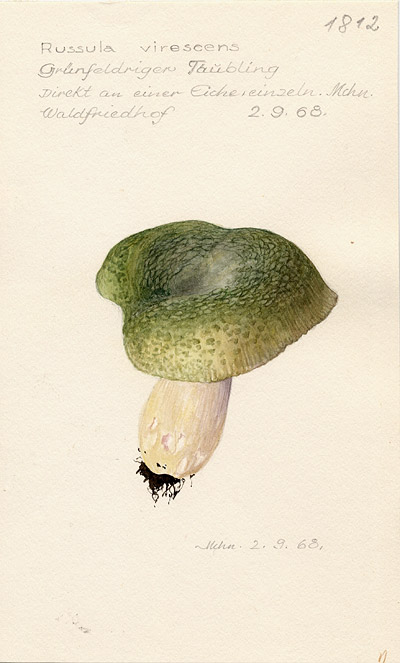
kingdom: Fungi
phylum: Basidiomycota
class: Agaricomycetes
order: Russulales
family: Russulaceae
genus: Russula
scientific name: Russula virescens
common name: Greencracked brittlegill
